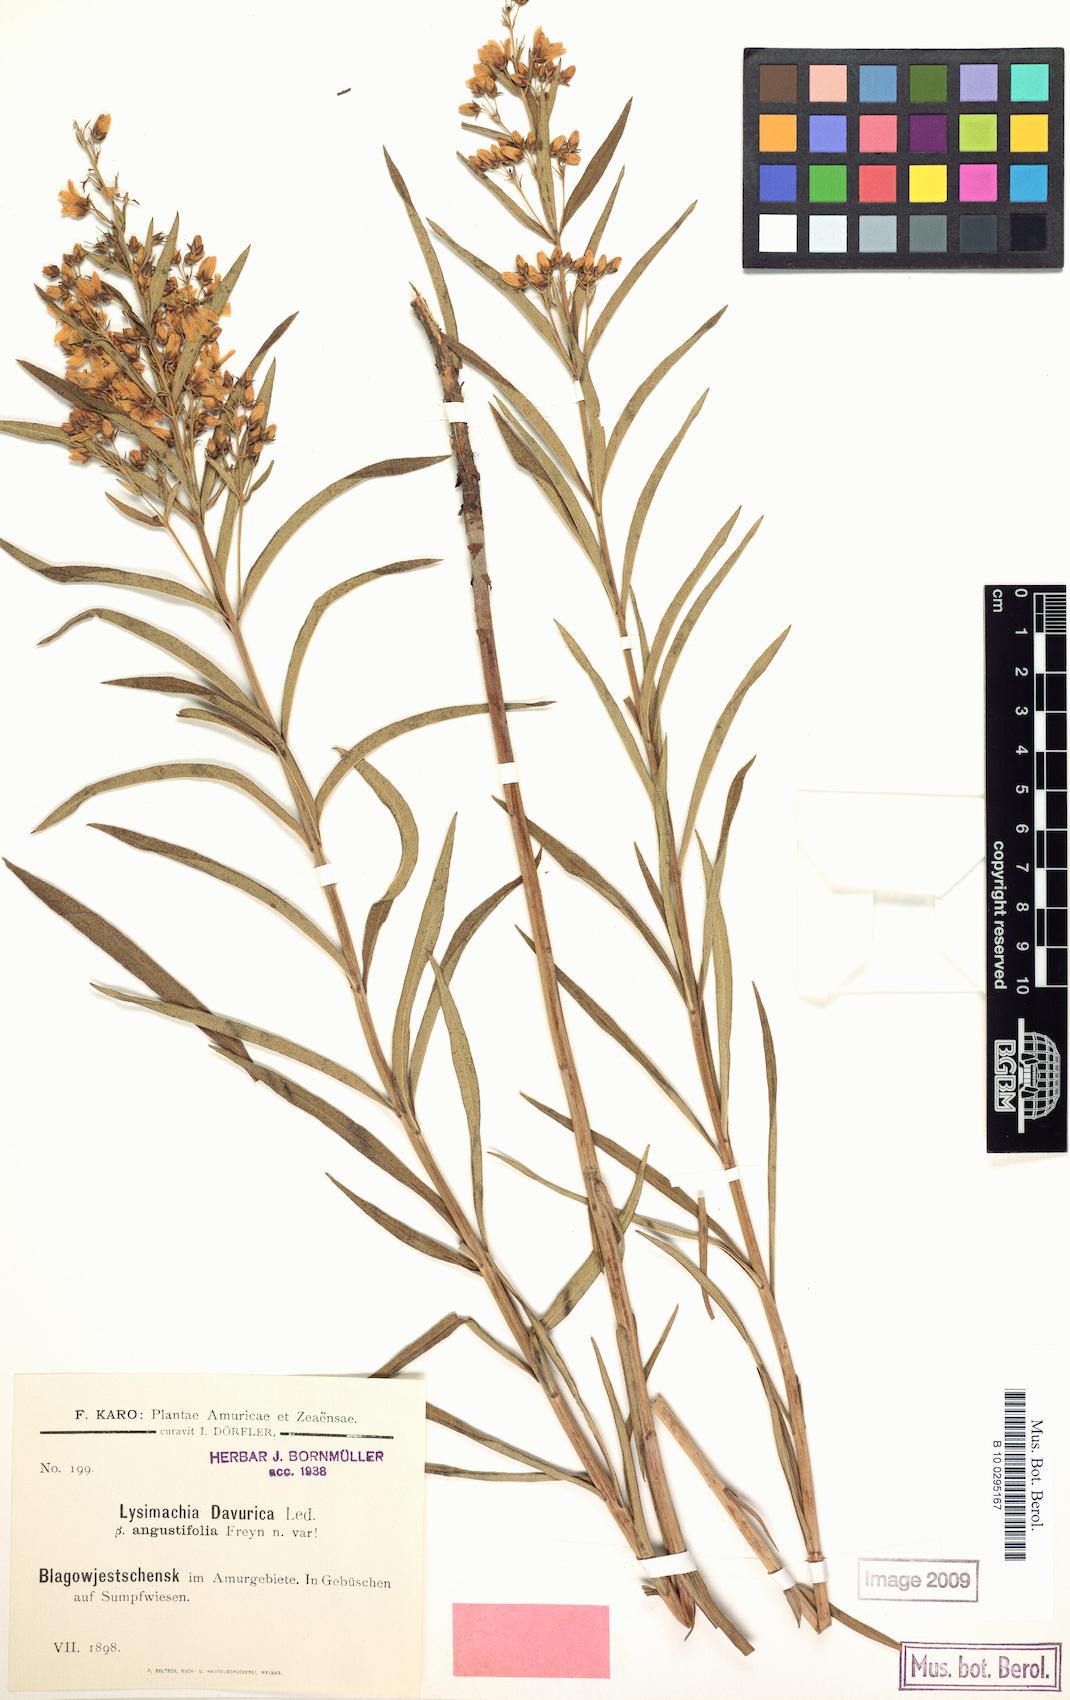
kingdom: Plantae
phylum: Tracheophyta
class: Magnoliopsida
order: Ericales
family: Primulaceae
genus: Lysimachia
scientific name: Lysimachia vulgaris
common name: Yellow loosestrife
